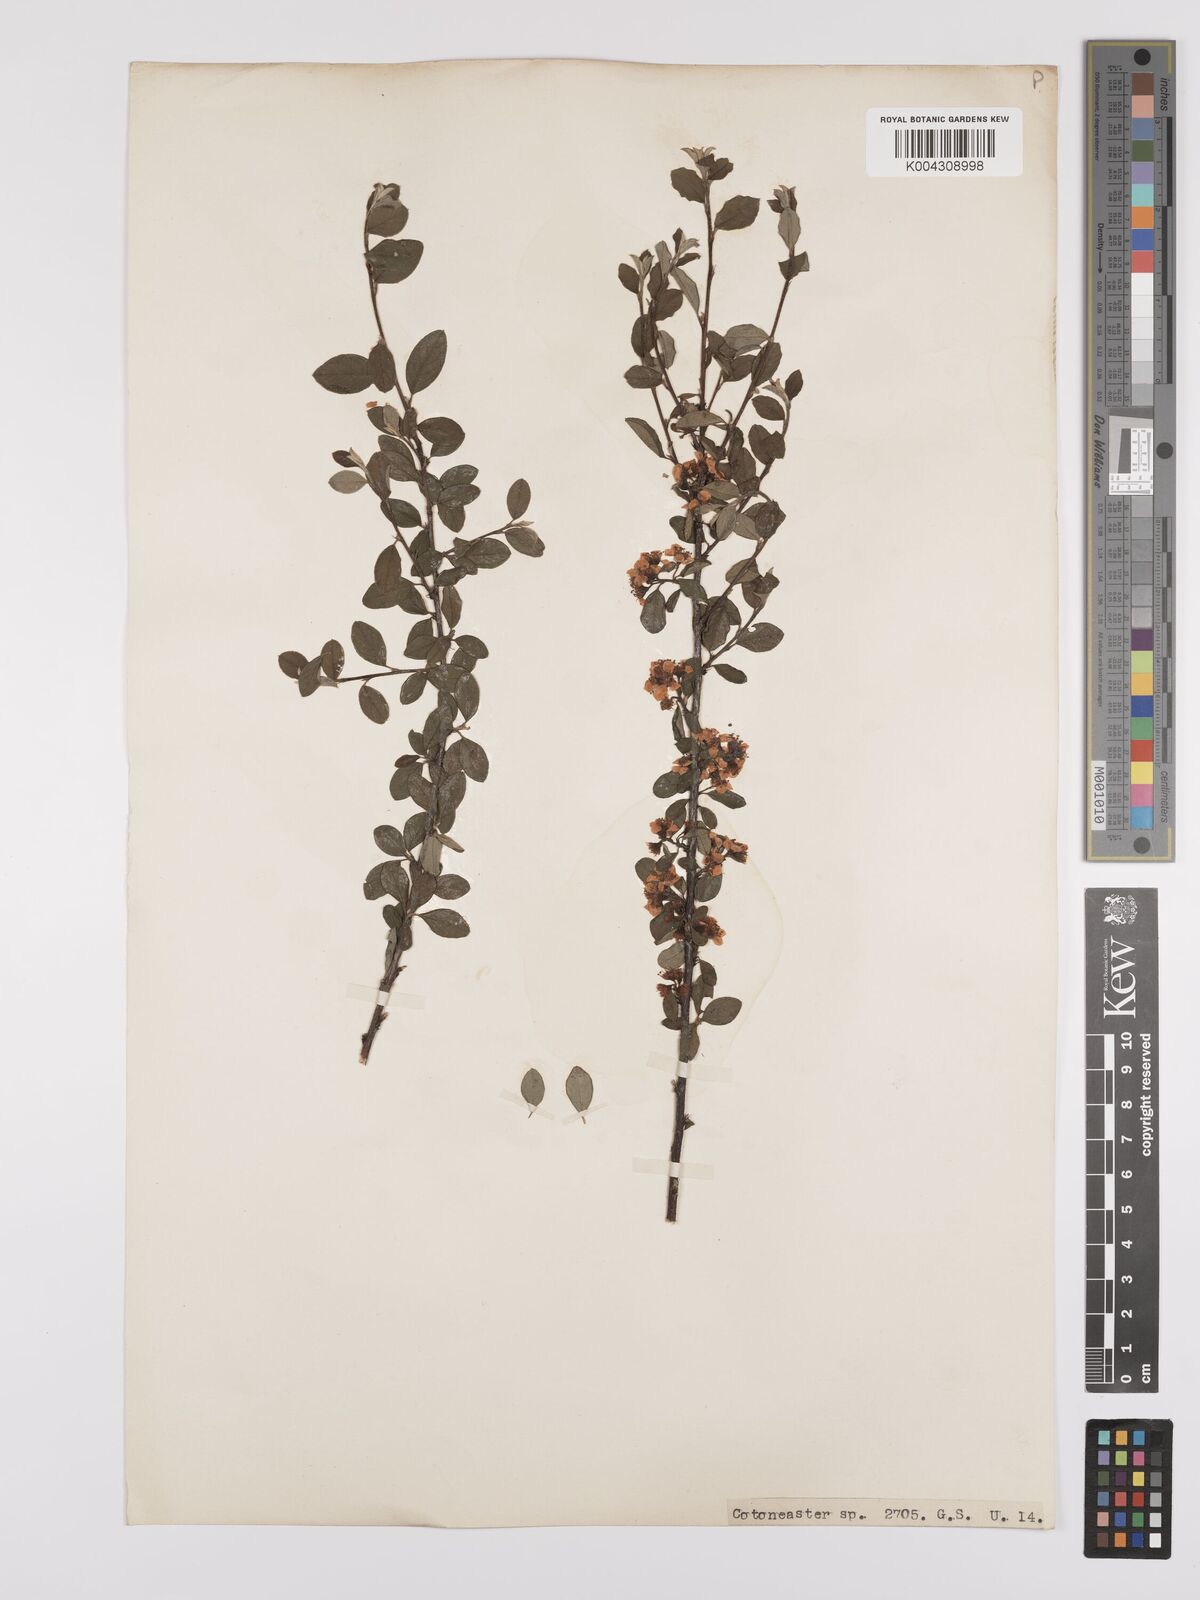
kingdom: Plantae
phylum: Tracheophyta
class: Magnoliopsida
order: Rosales
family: Rosaceae
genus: Cotoneaster
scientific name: Cotoneaster
